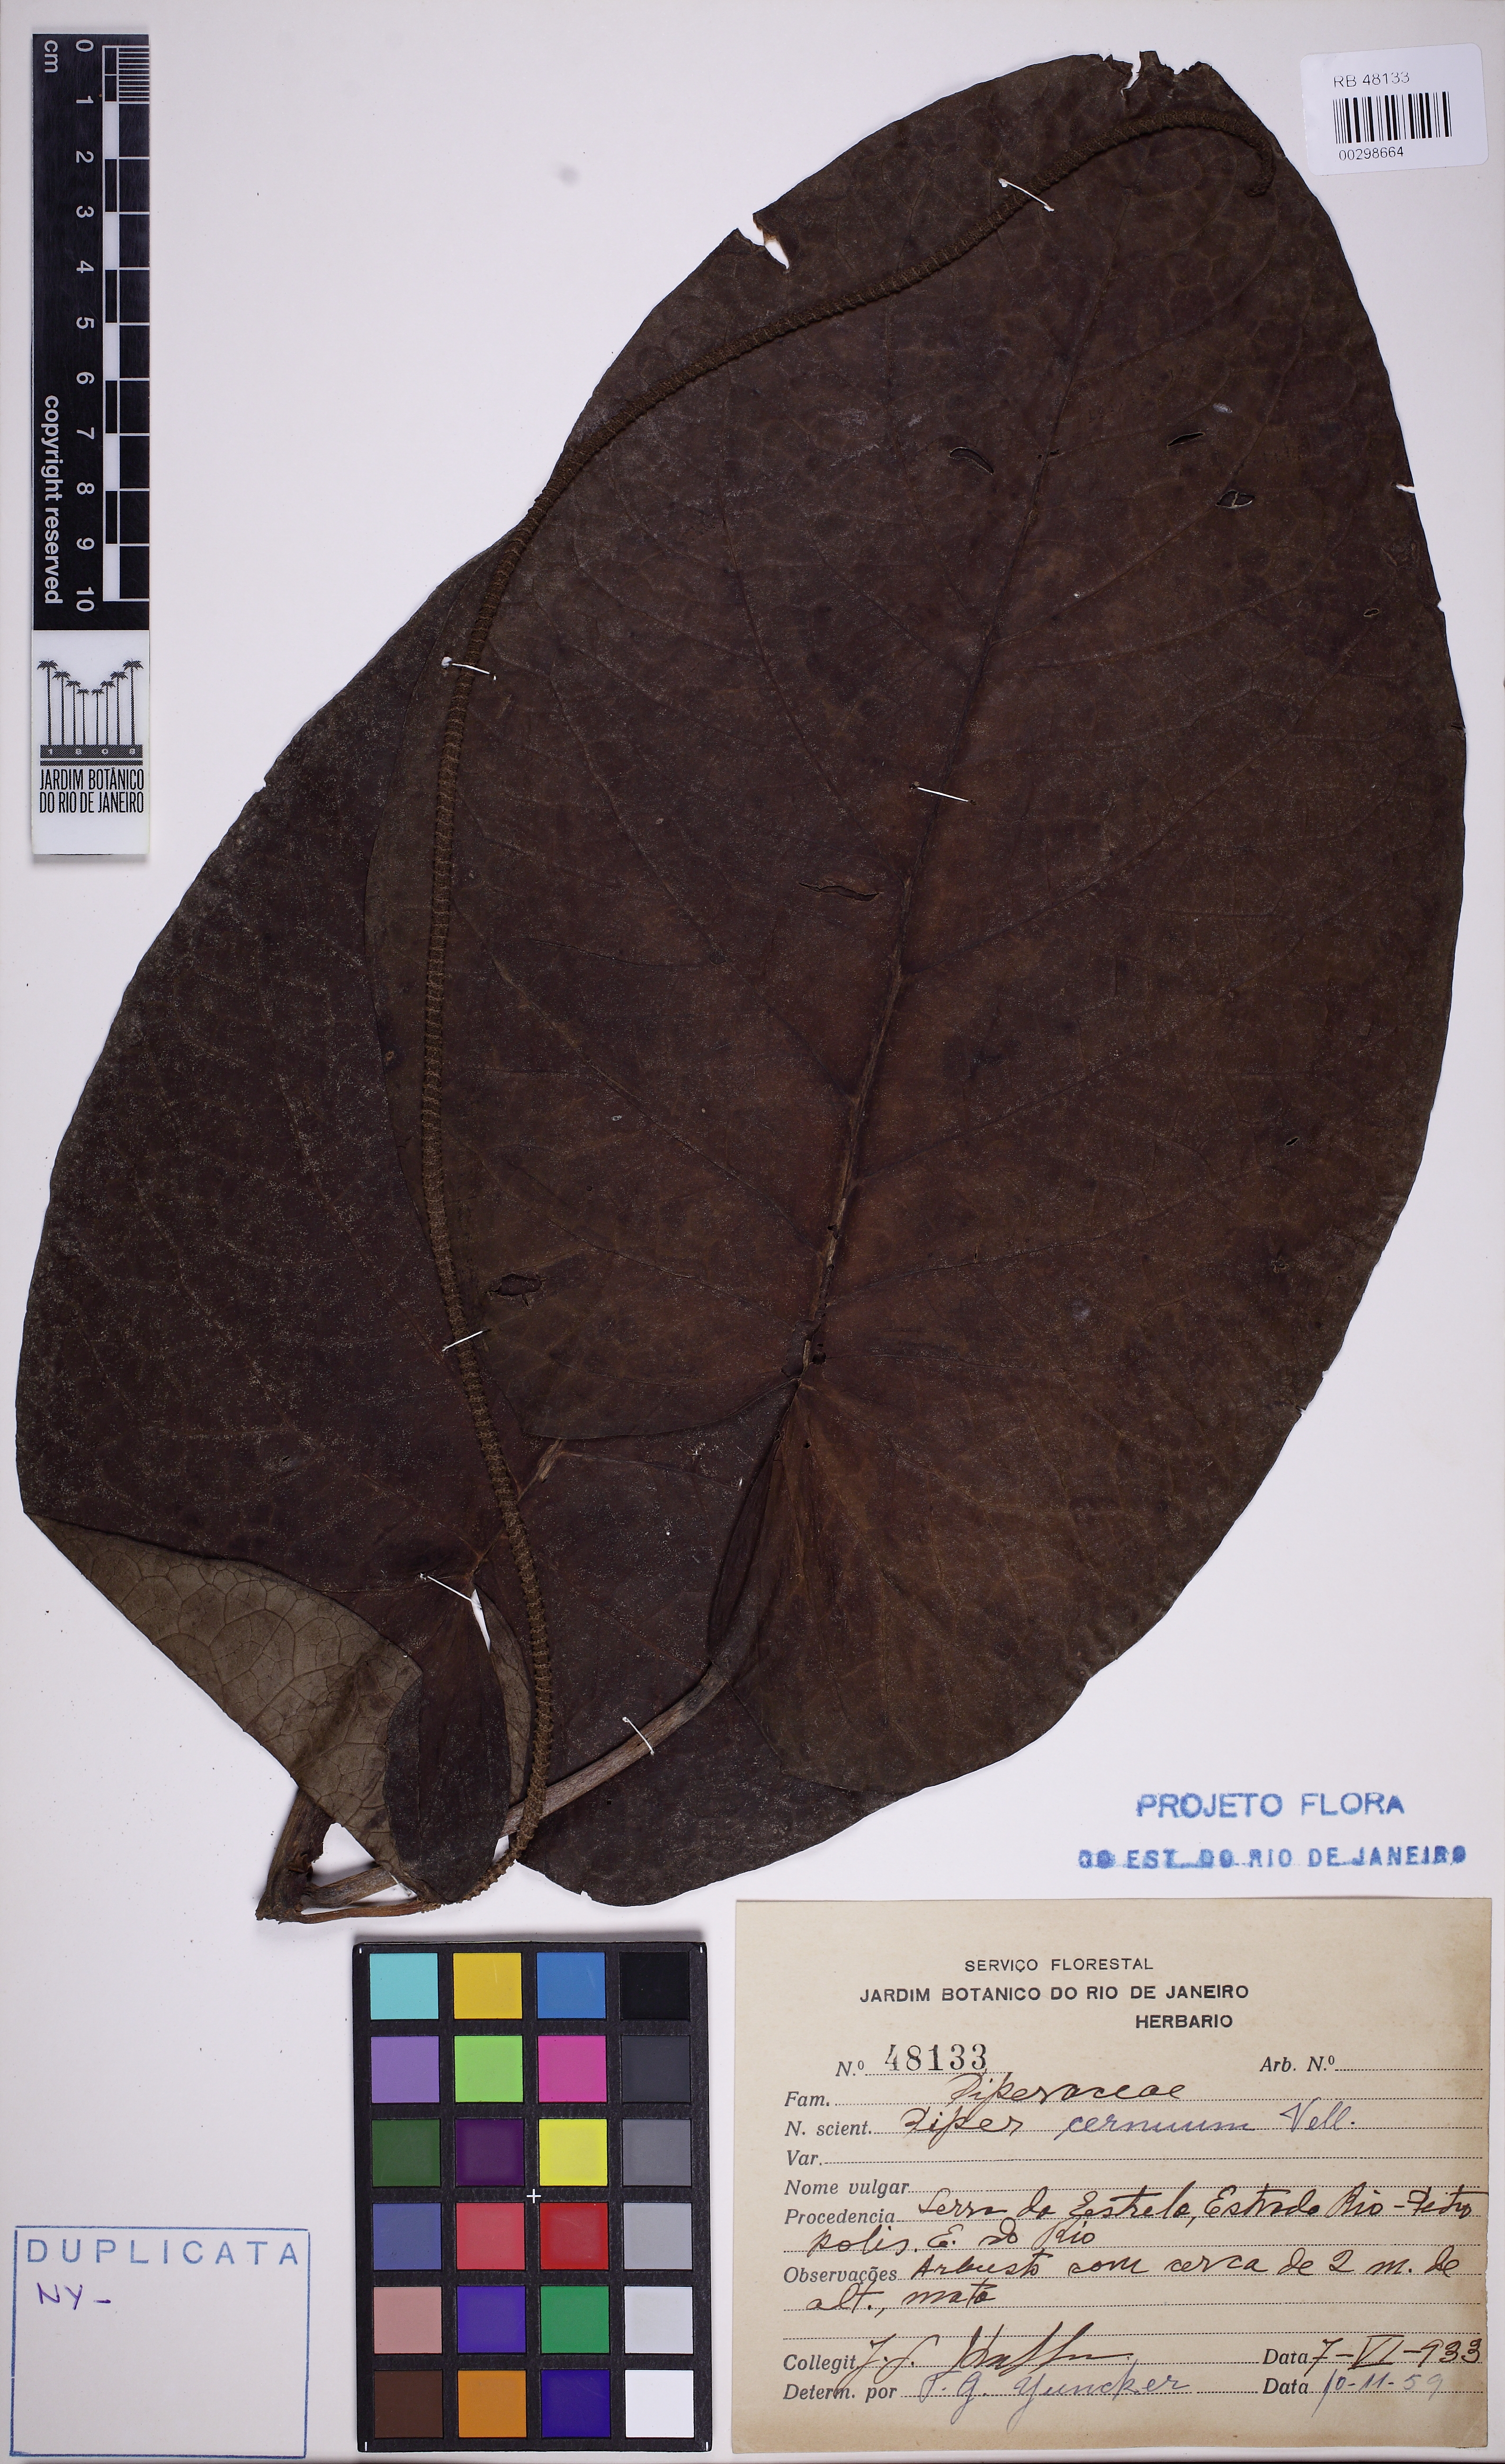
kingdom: Plantae
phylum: Tracheophyta
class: Magnoliopsida
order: Piperales
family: Piperaceae
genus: Piper
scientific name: Piper cernuum
